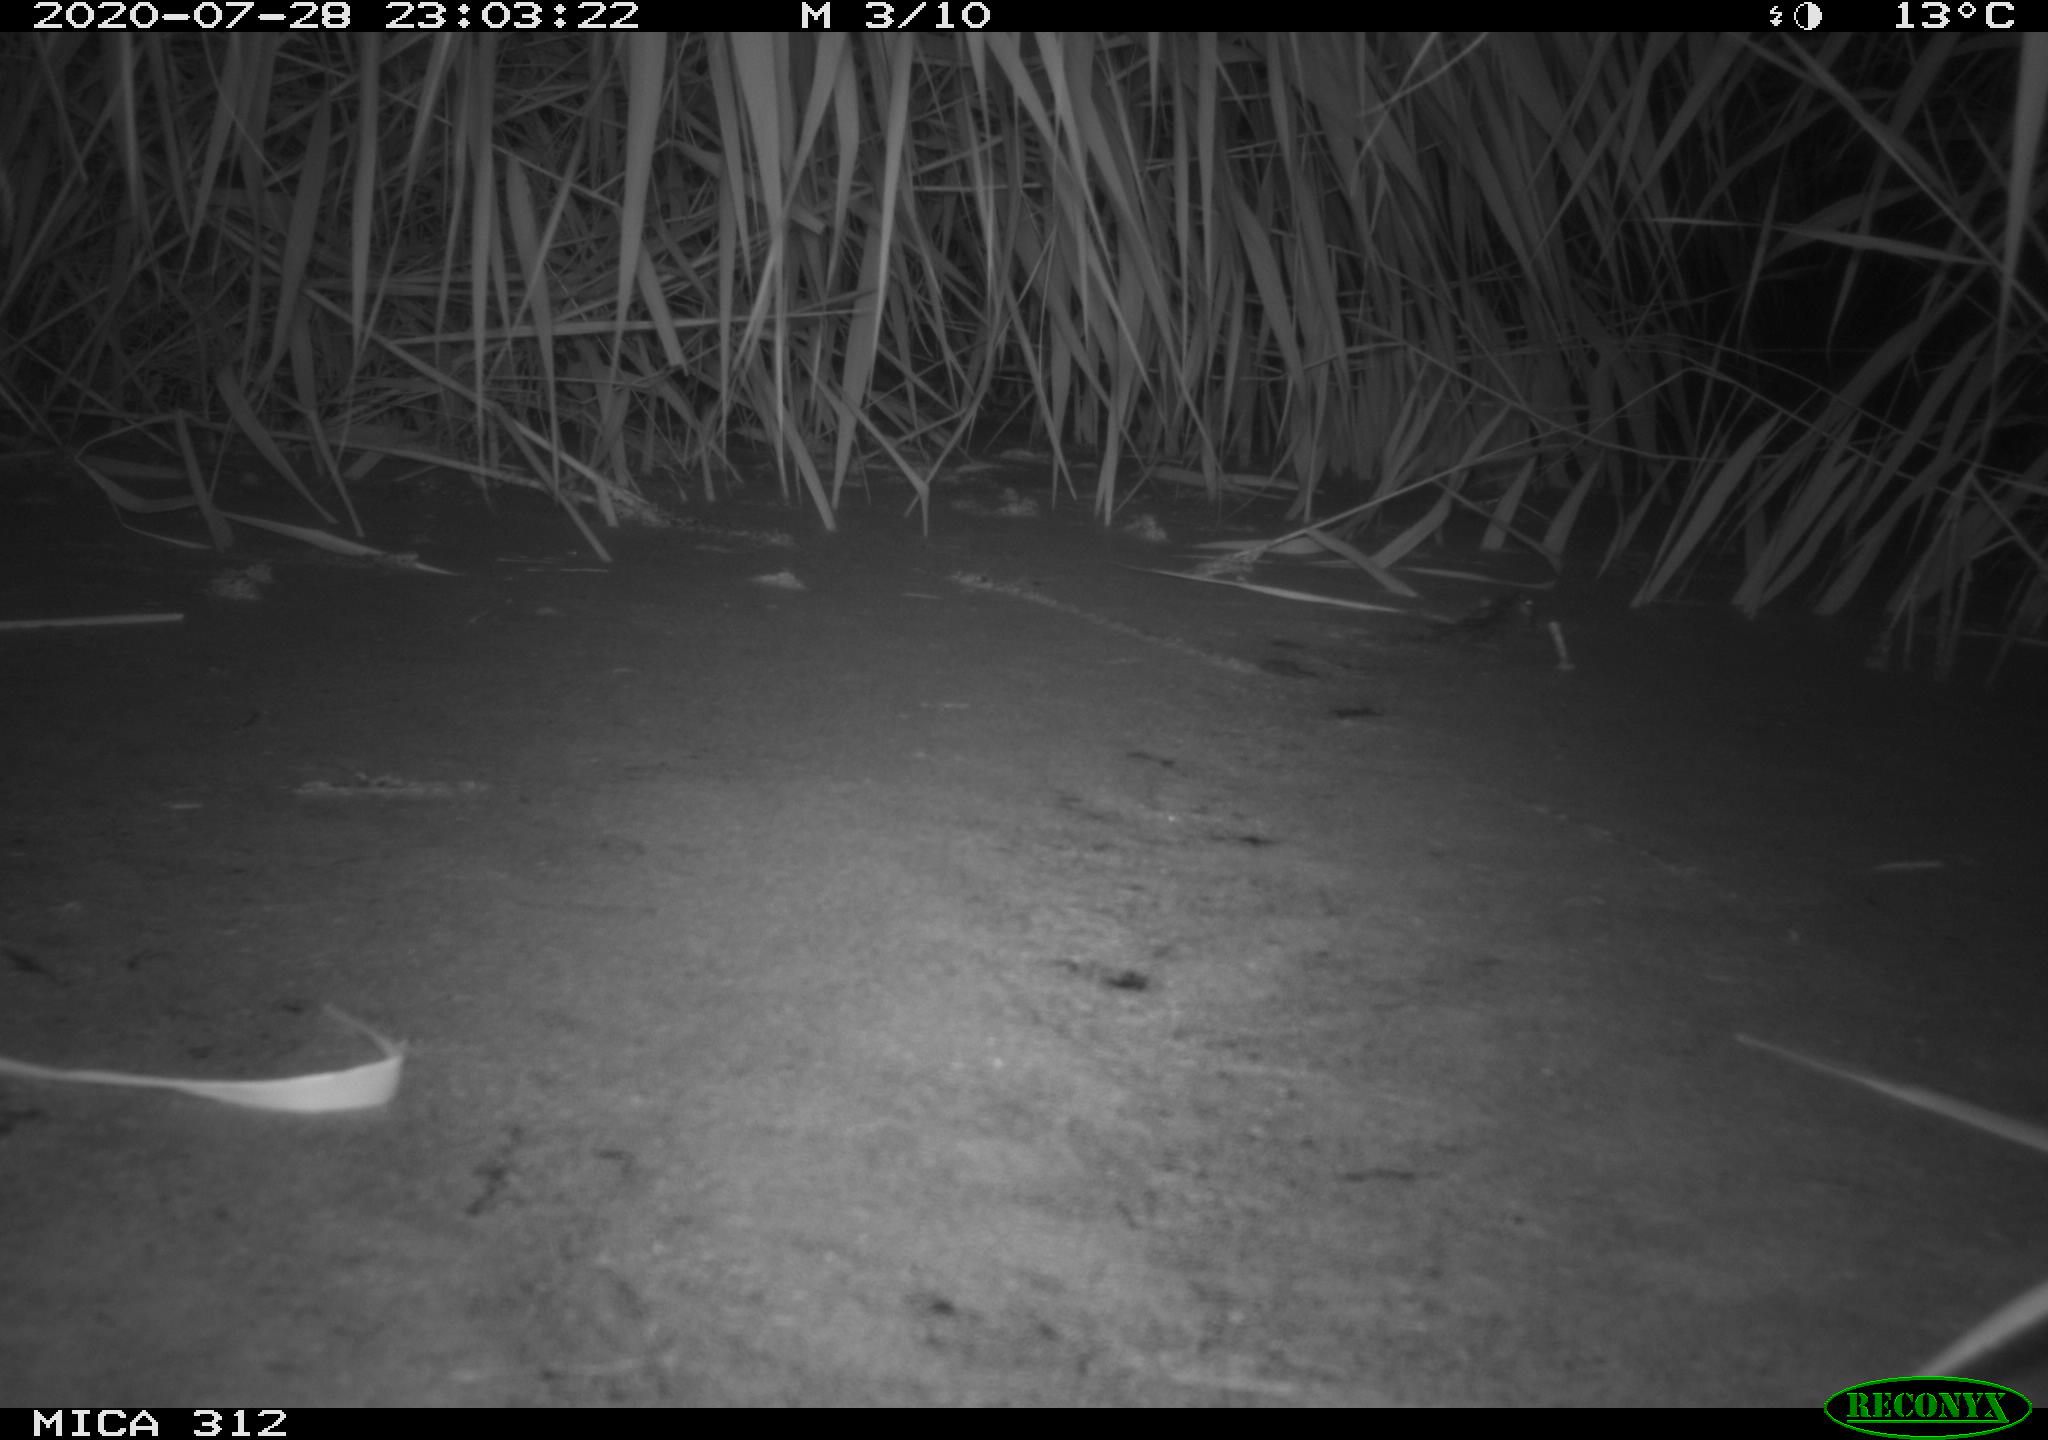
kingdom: Animalia
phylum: Chordata
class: Mammalia
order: Rodentia
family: Muridae
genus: Rattus
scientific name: Rattus norvegicus
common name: Brown rat
